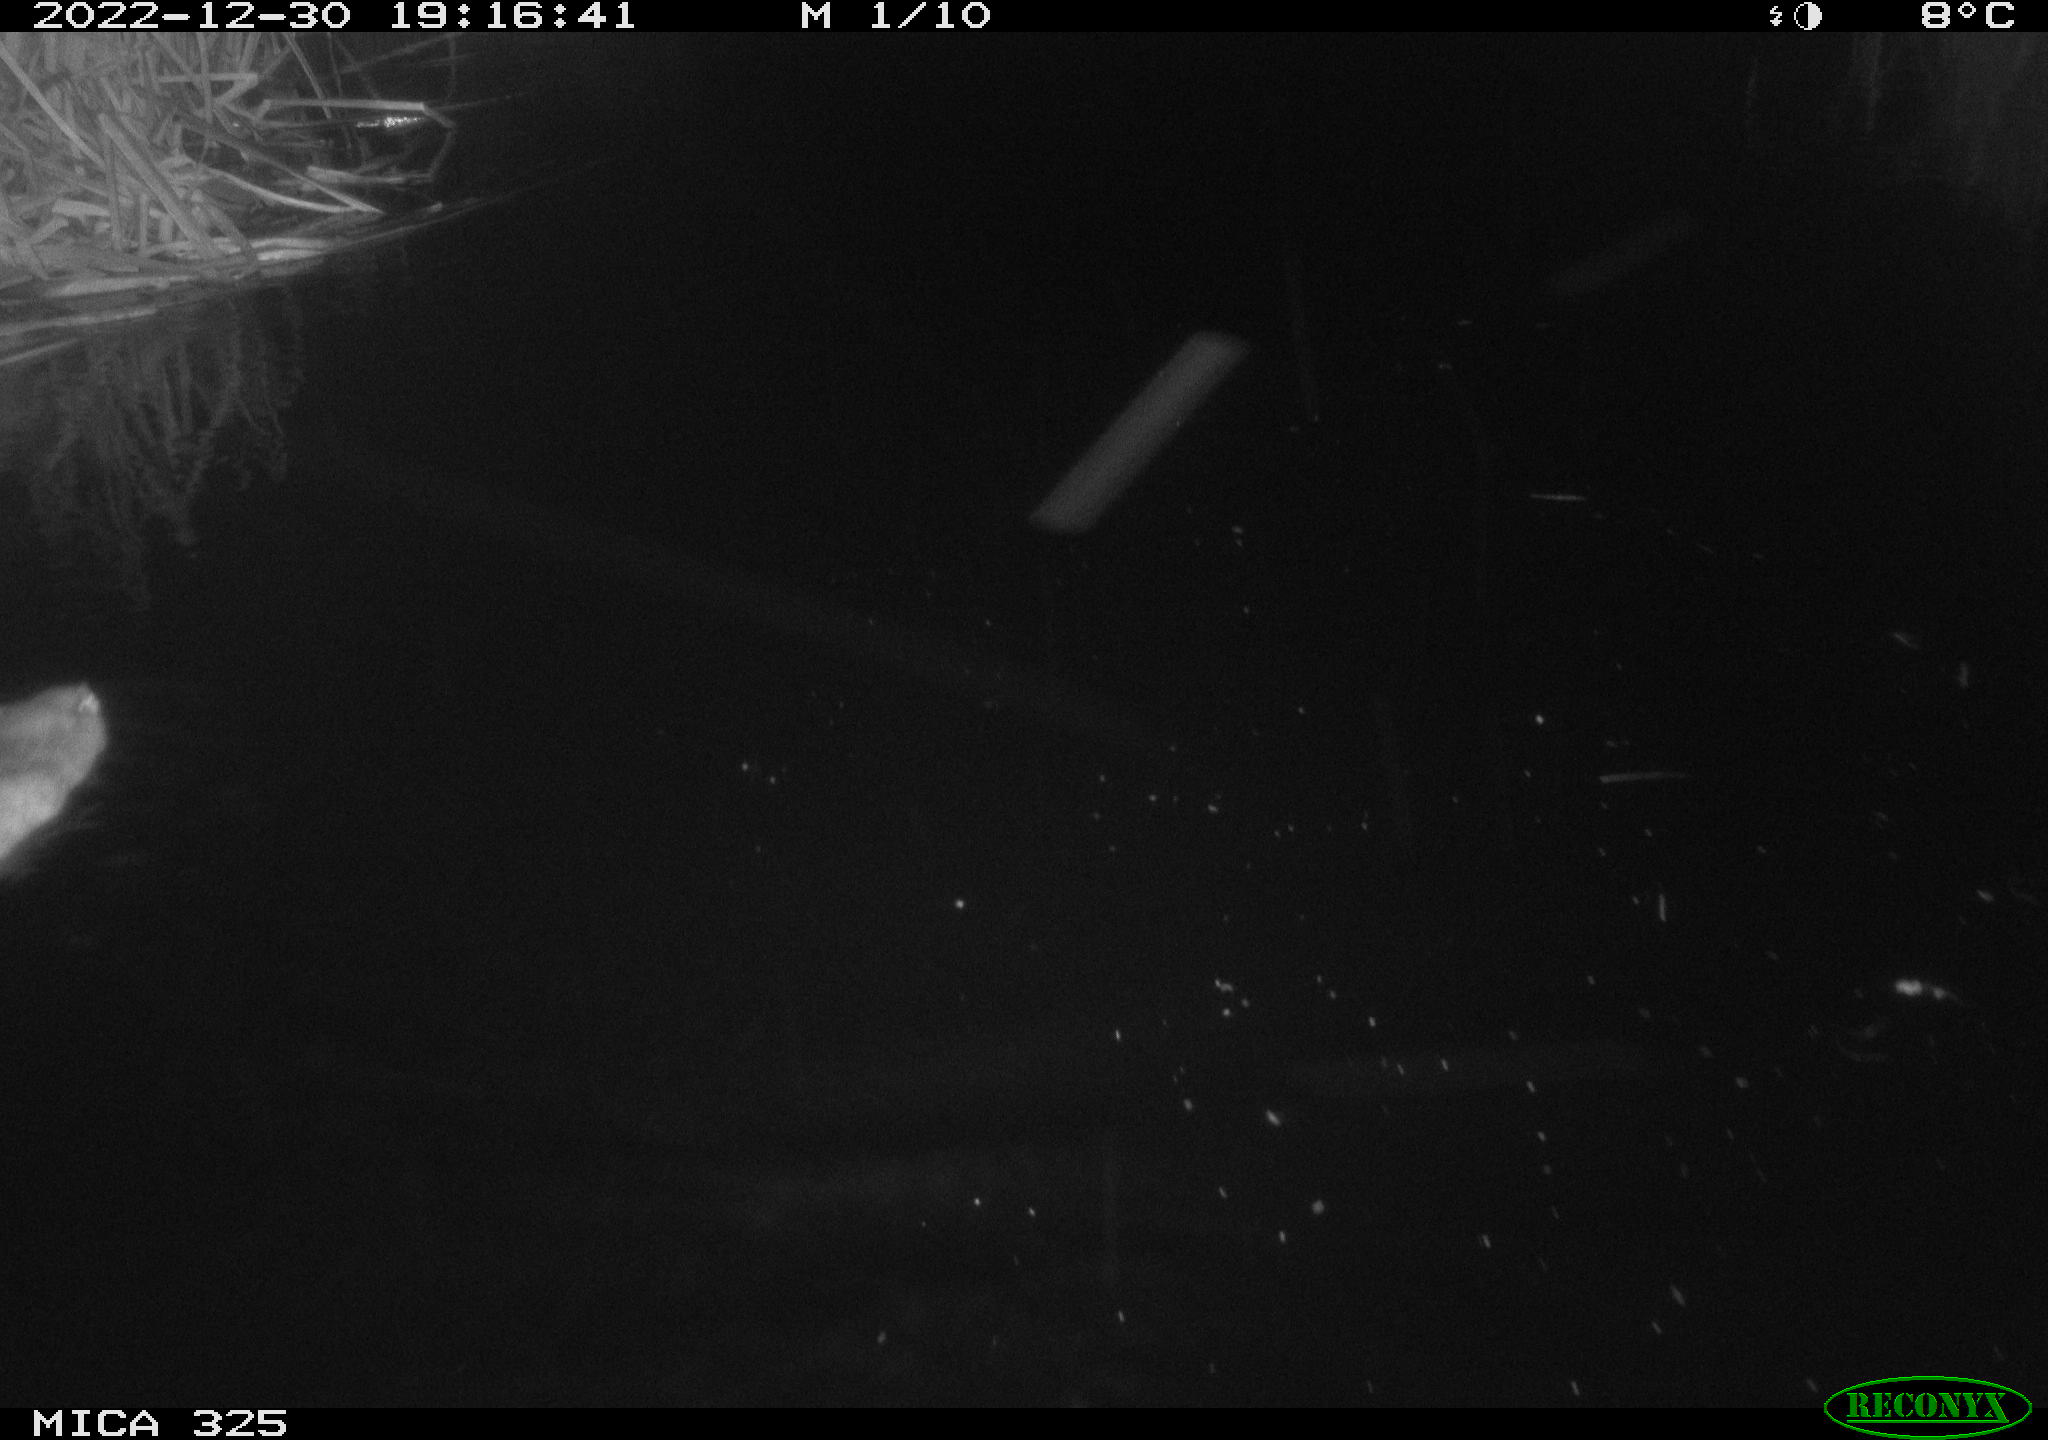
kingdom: Animalia
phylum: Chordata
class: Mammalia
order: Rodentia
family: Cricetidae
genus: Ondatra
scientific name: Ondatra zibethicus
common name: Muskrat
